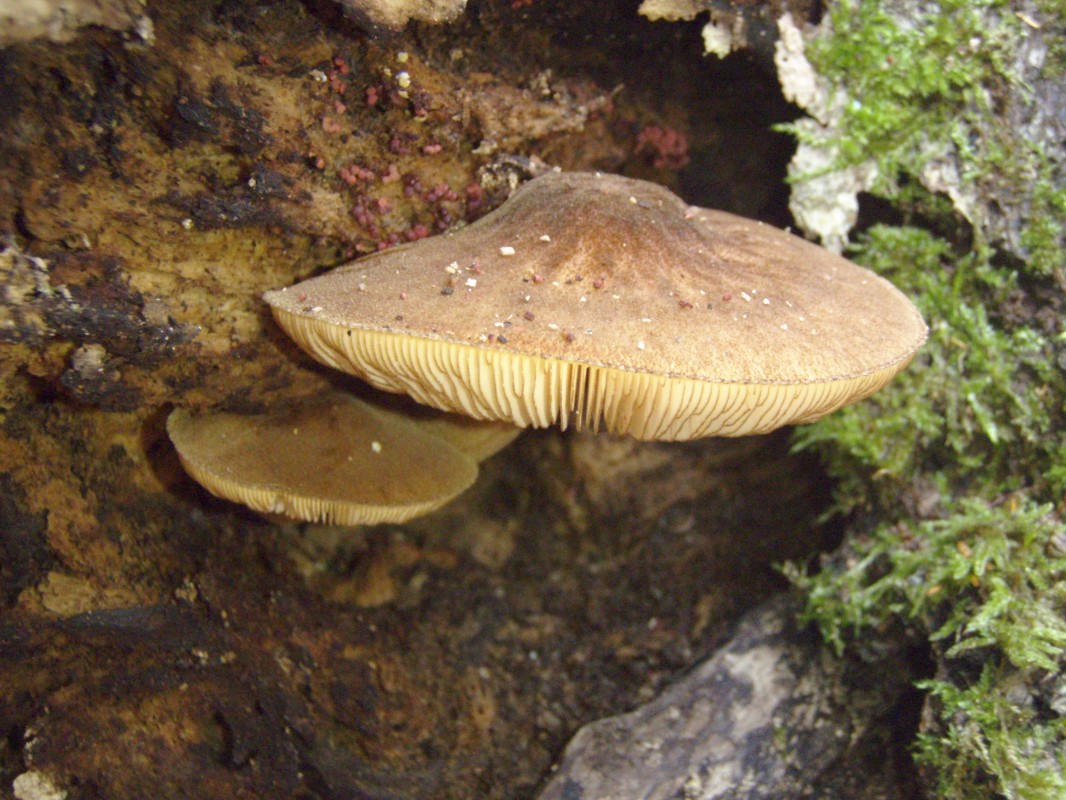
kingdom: Fungi
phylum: Basidiomycota
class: Agaricomycetes
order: Agaricales
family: Pluteaceae
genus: Pluteus
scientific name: Pluteus umbrosus
